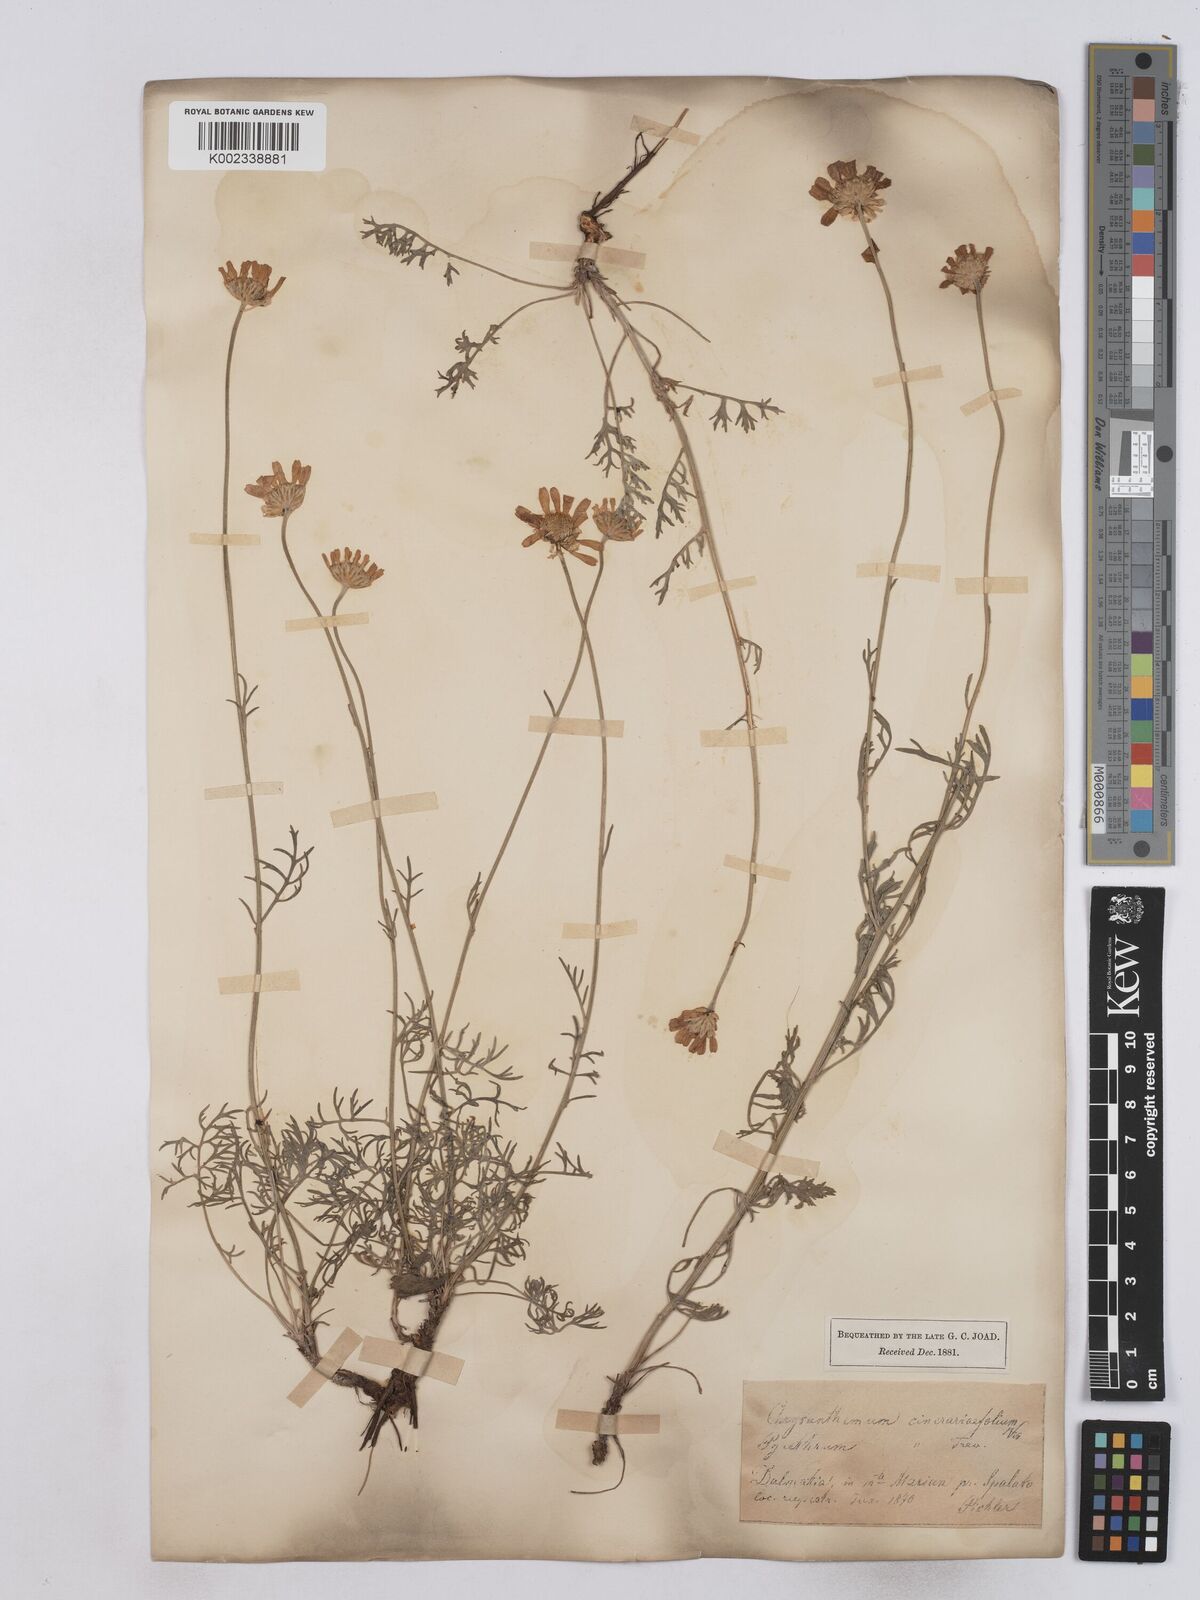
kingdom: Plantae
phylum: Tracheophyta
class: Magnoliopsida
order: Asterales
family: Asteraceae
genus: Tanacetum
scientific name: Tanacetum cinerariifolium
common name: Dalmatian pyrethrum
